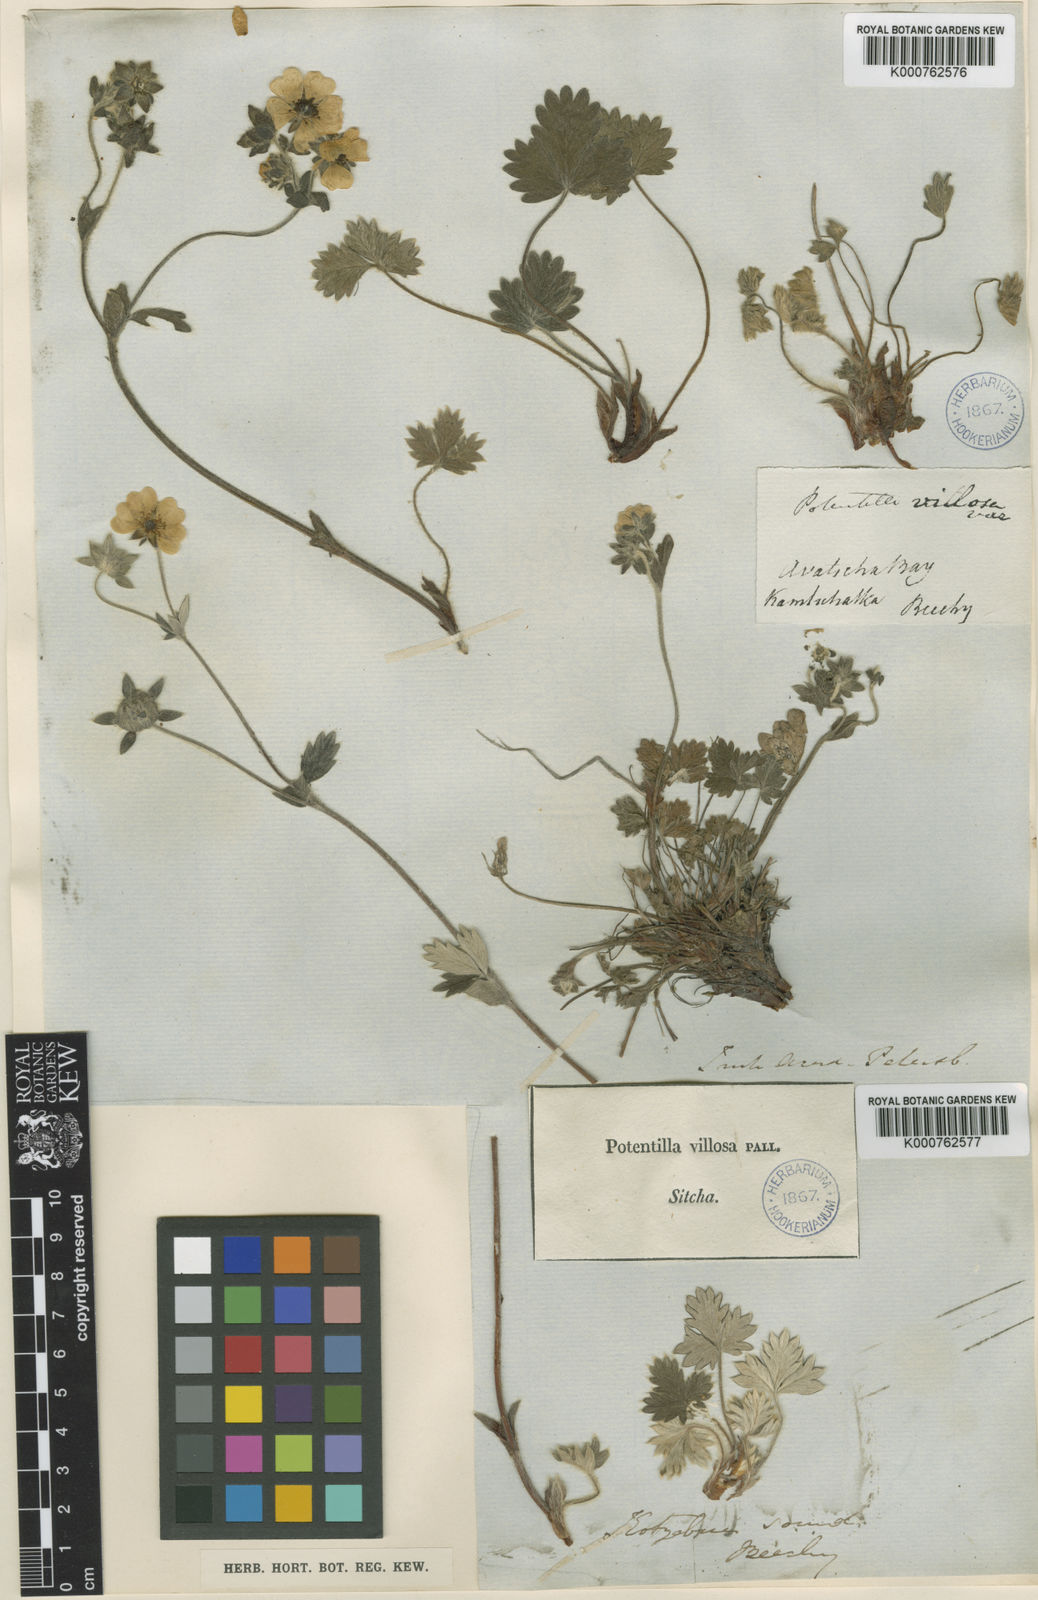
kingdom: Plantae
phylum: Tracheophyta
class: Magnoliopsida
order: Rosales
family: Rosaceae
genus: Potentilla
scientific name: Potentilla villosa
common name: Northern cinquefoil
